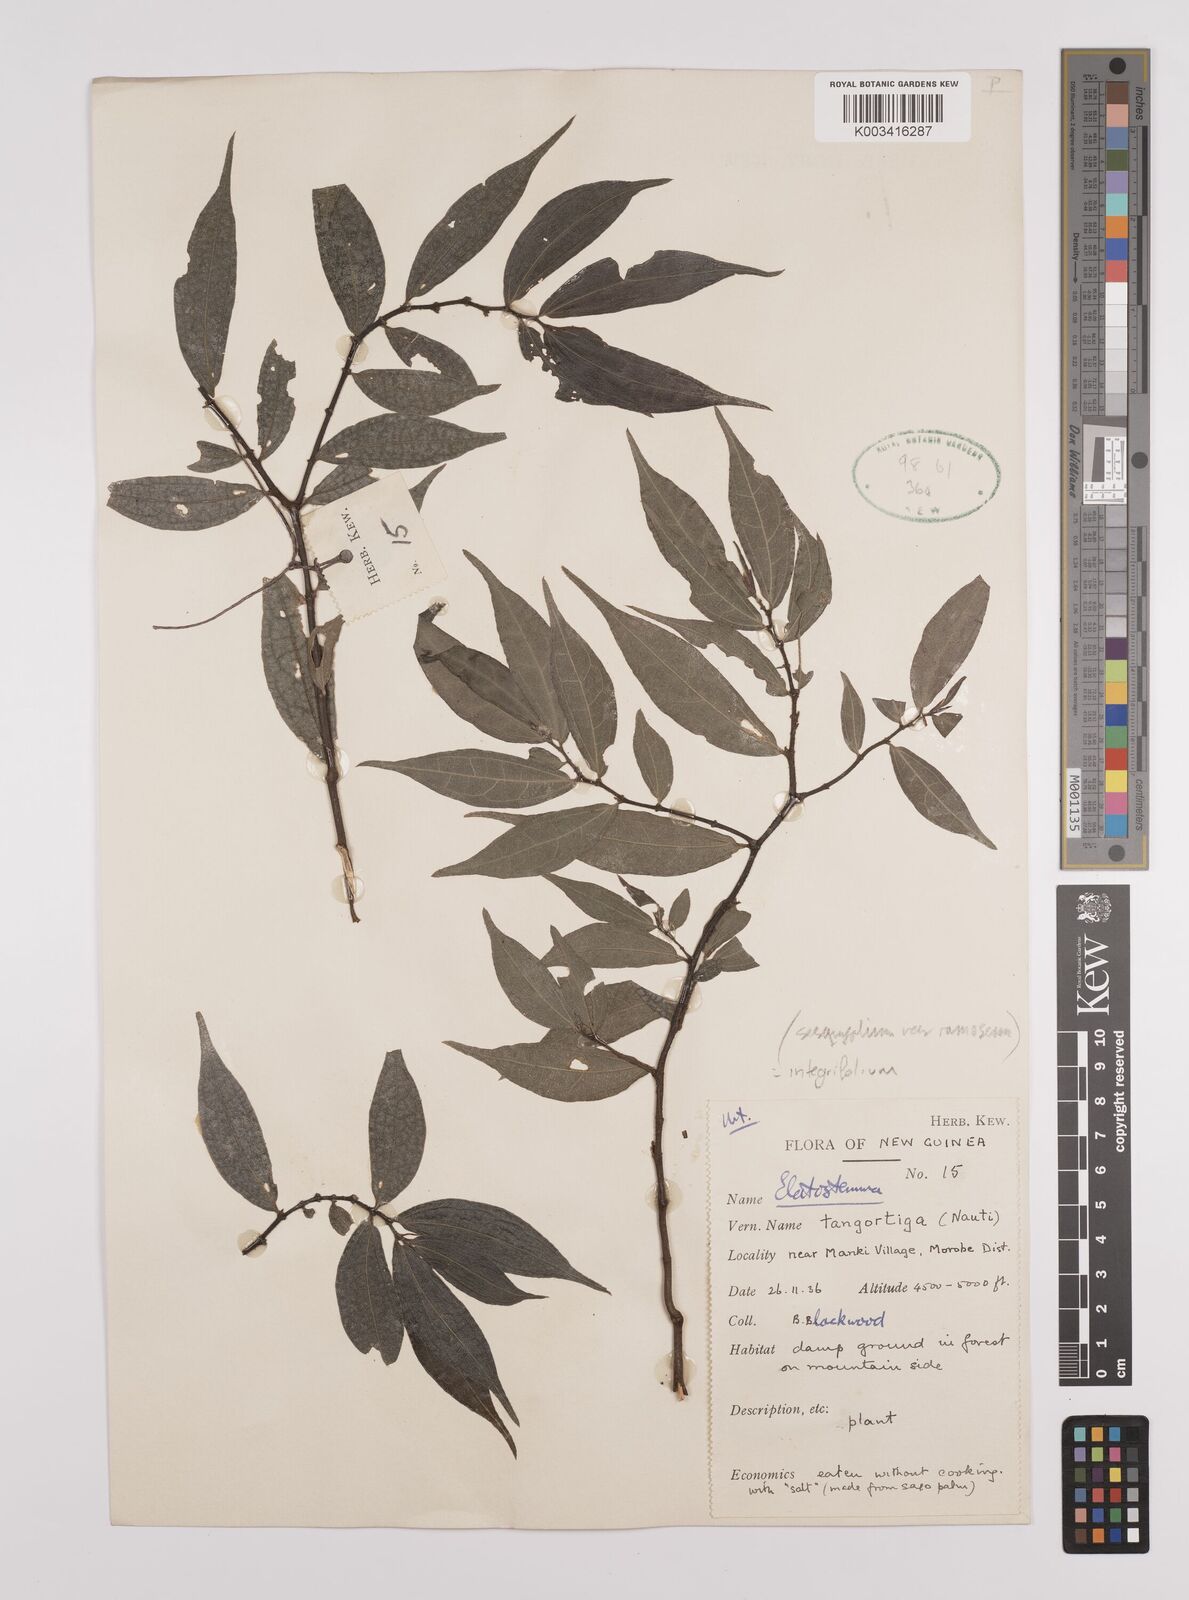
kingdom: Plantae
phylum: Tracheophyta
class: Magnoliopsida
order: Rosales
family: Urticaceae
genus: Elatostema
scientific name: Elatostema integrifolium
